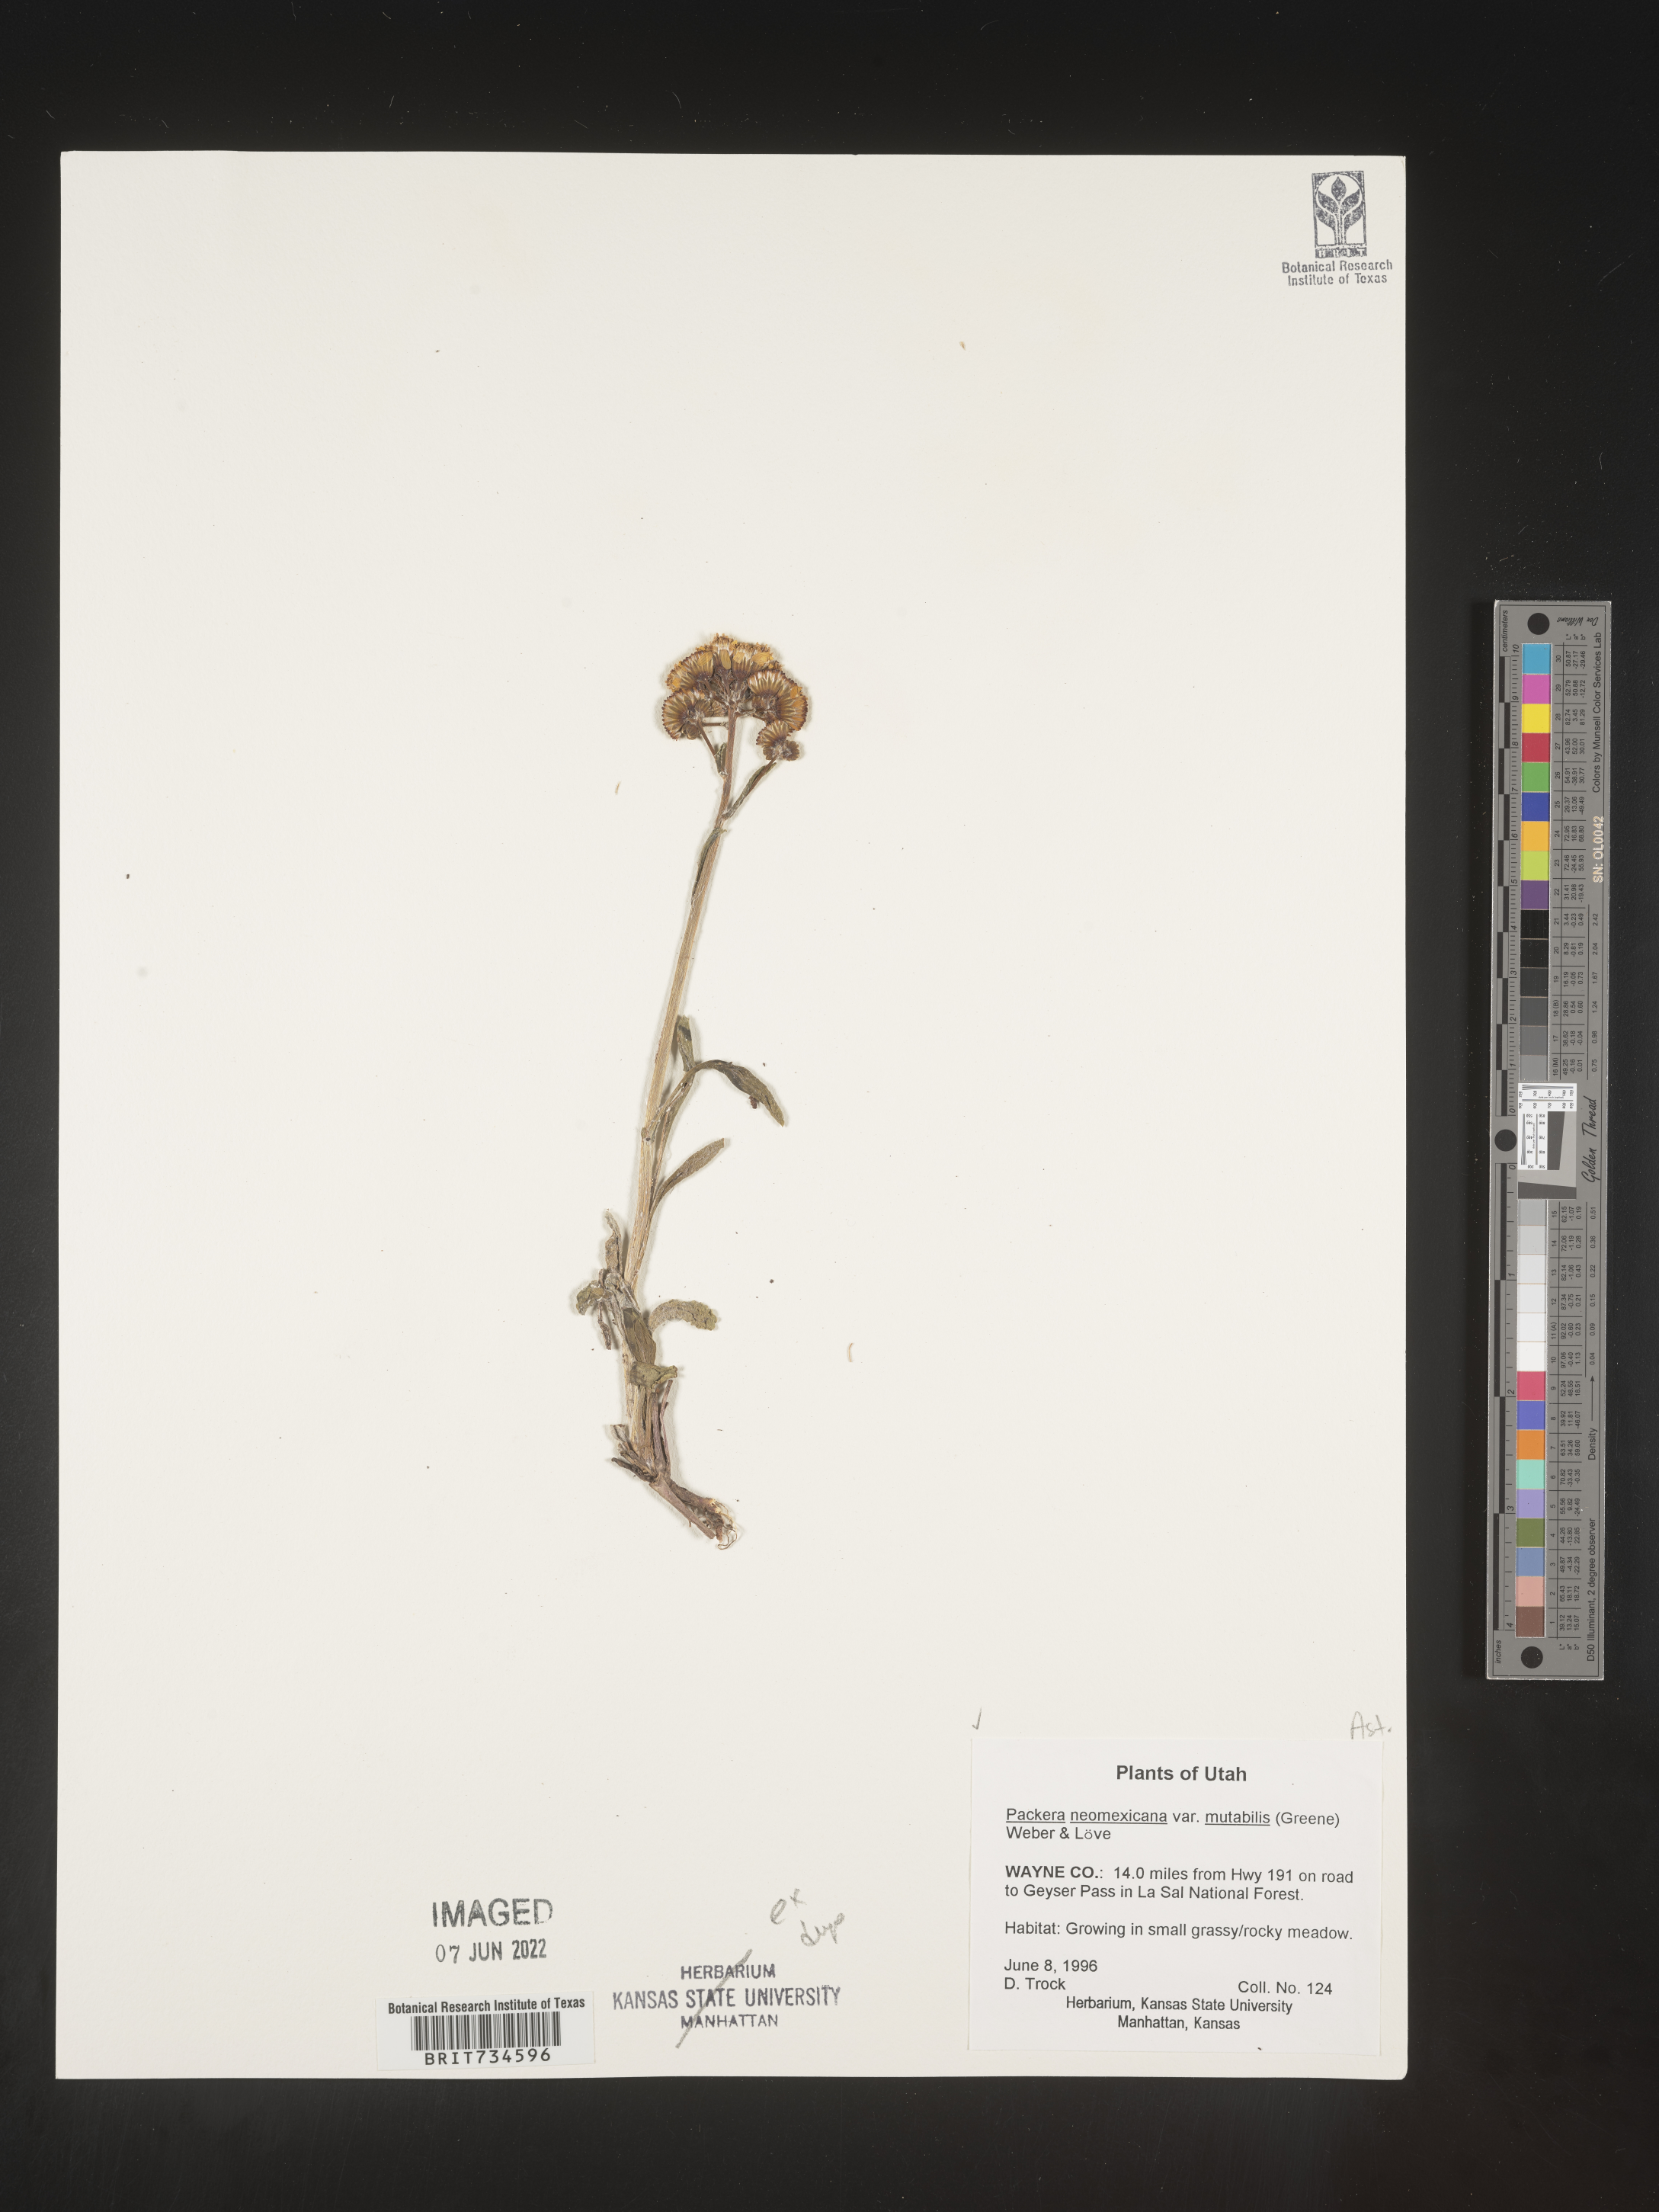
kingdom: Plantae
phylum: Tracheophyta
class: Magnoliopsida
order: Asterales
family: Asteraceae
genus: Packera
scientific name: Packera neomexicana
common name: New mexico butterweed
